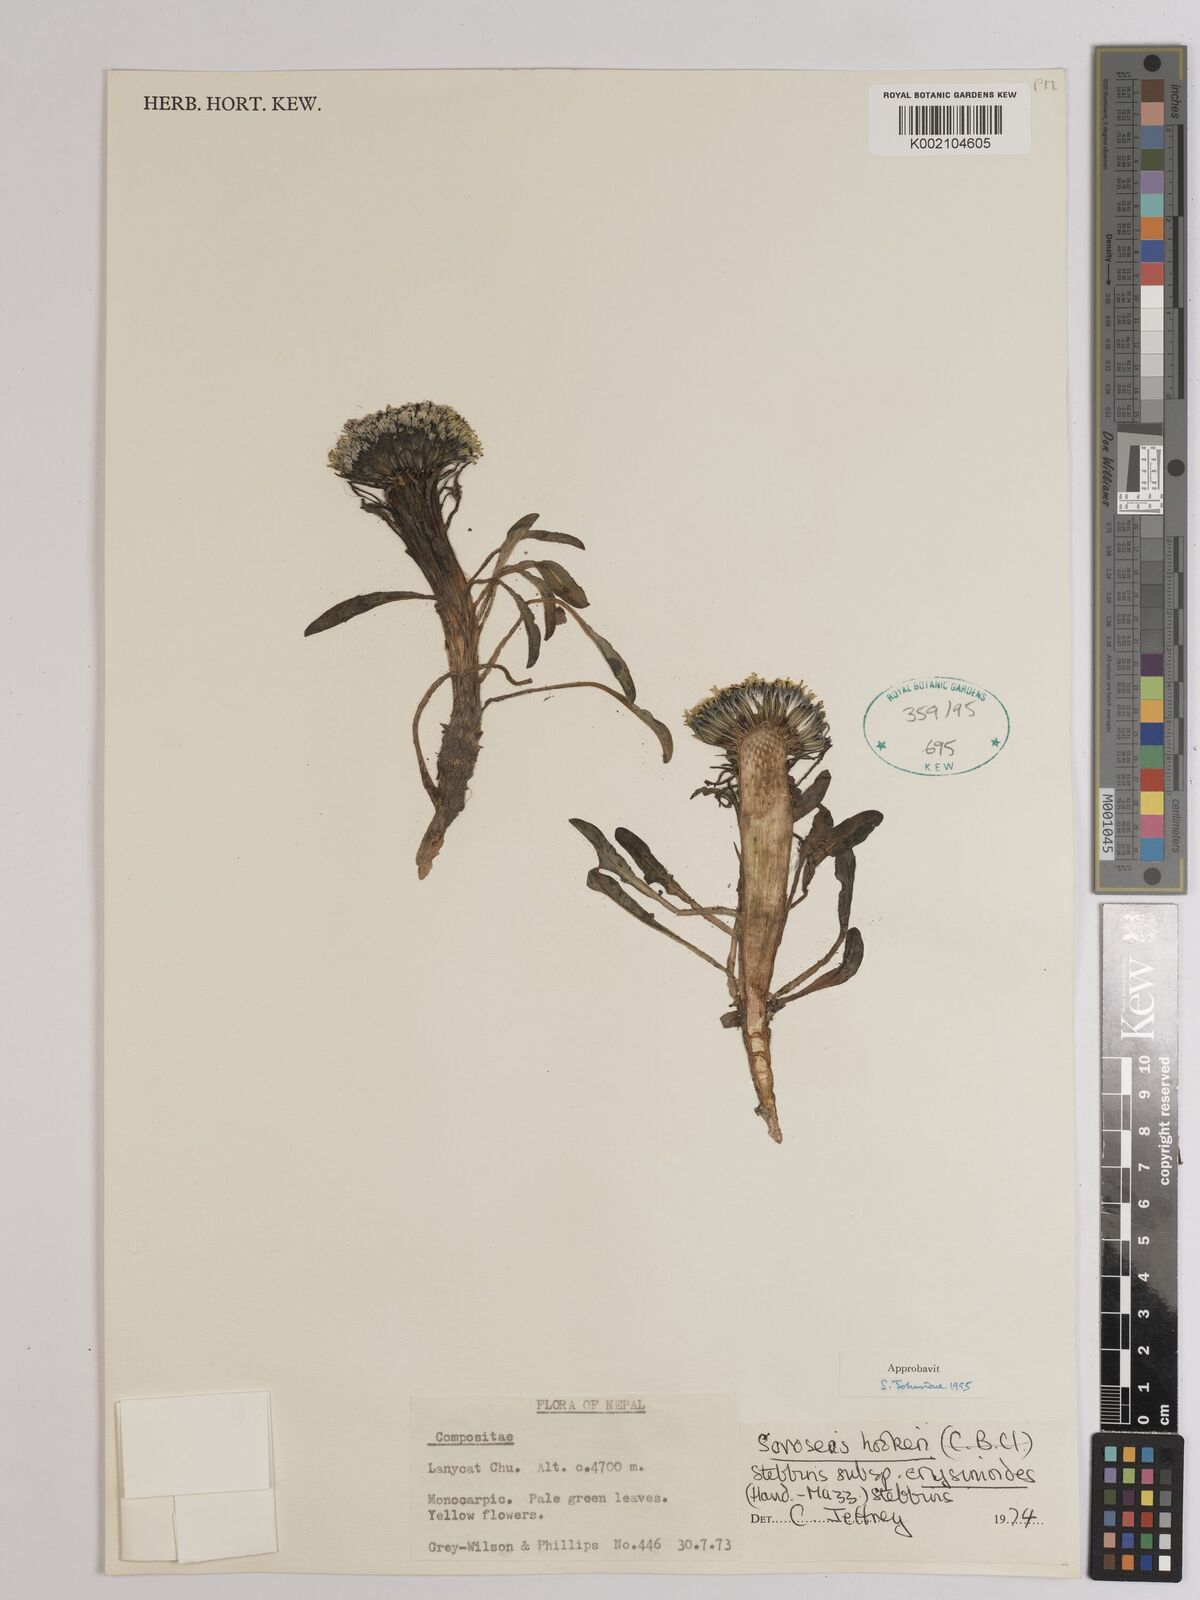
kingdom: Plantae
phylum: Tracheophyta
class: Magnoliopsida
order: Asterales
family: Asteraceae
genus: Soroseris
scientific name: Soroseris hookeriana
